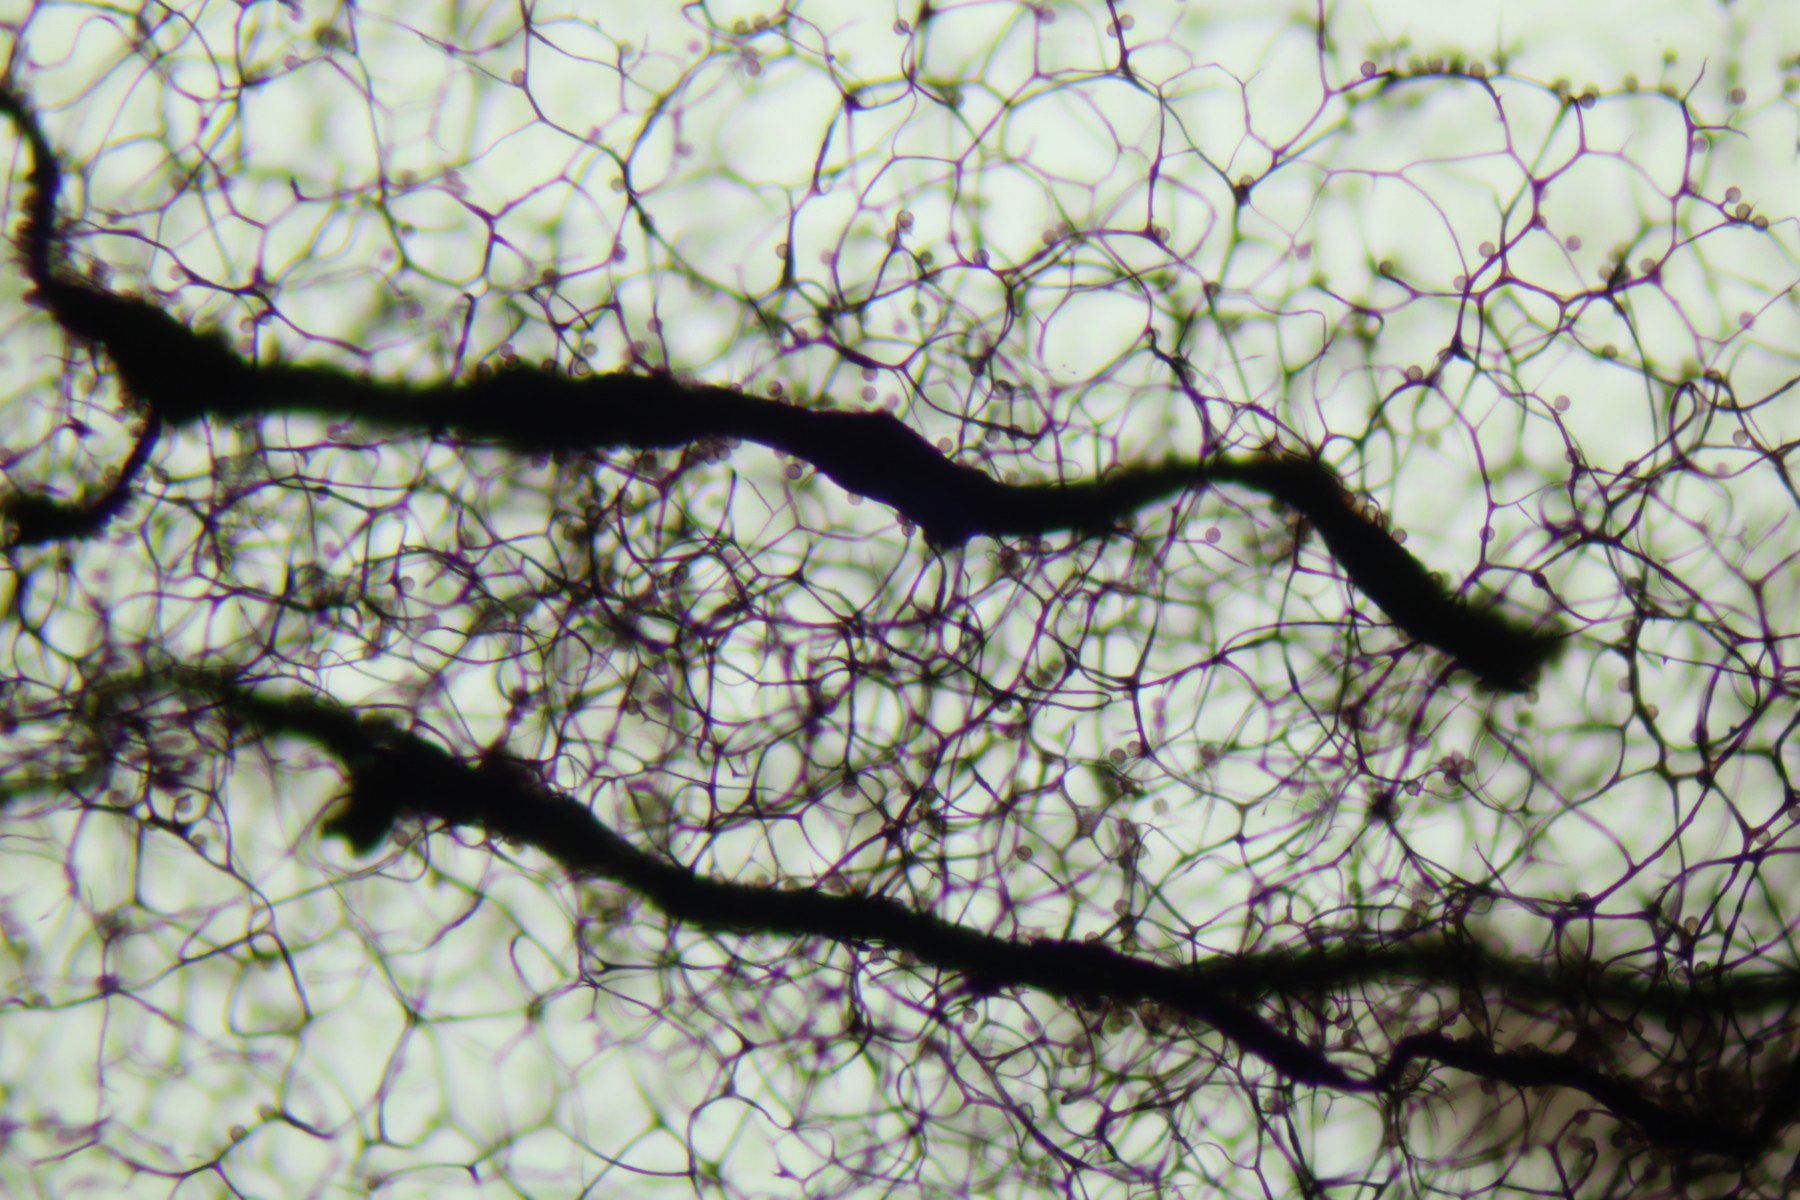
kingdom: Protozoa
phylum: Mycetozoa
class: Myxomycetes
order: Stemonitidales
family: Stemonitidaceae
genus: Symphytocarpus
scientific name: Symphytocarpus amaurochaetoides
